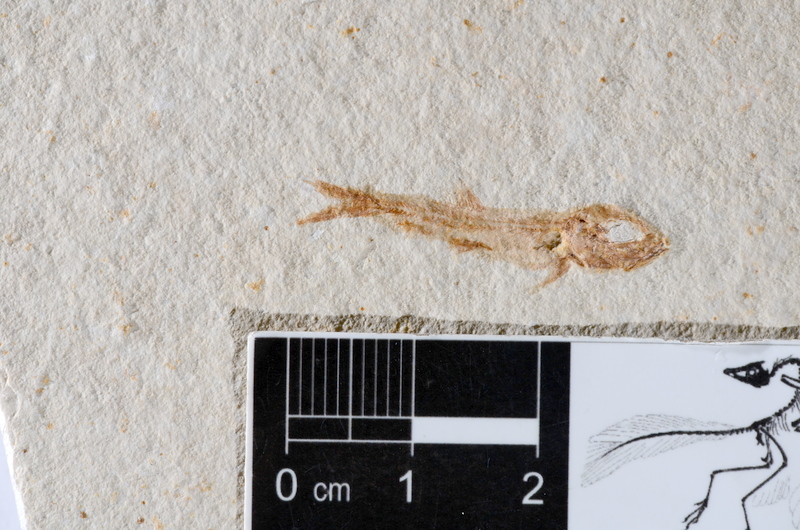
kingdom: Animalia
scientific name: Animalia
